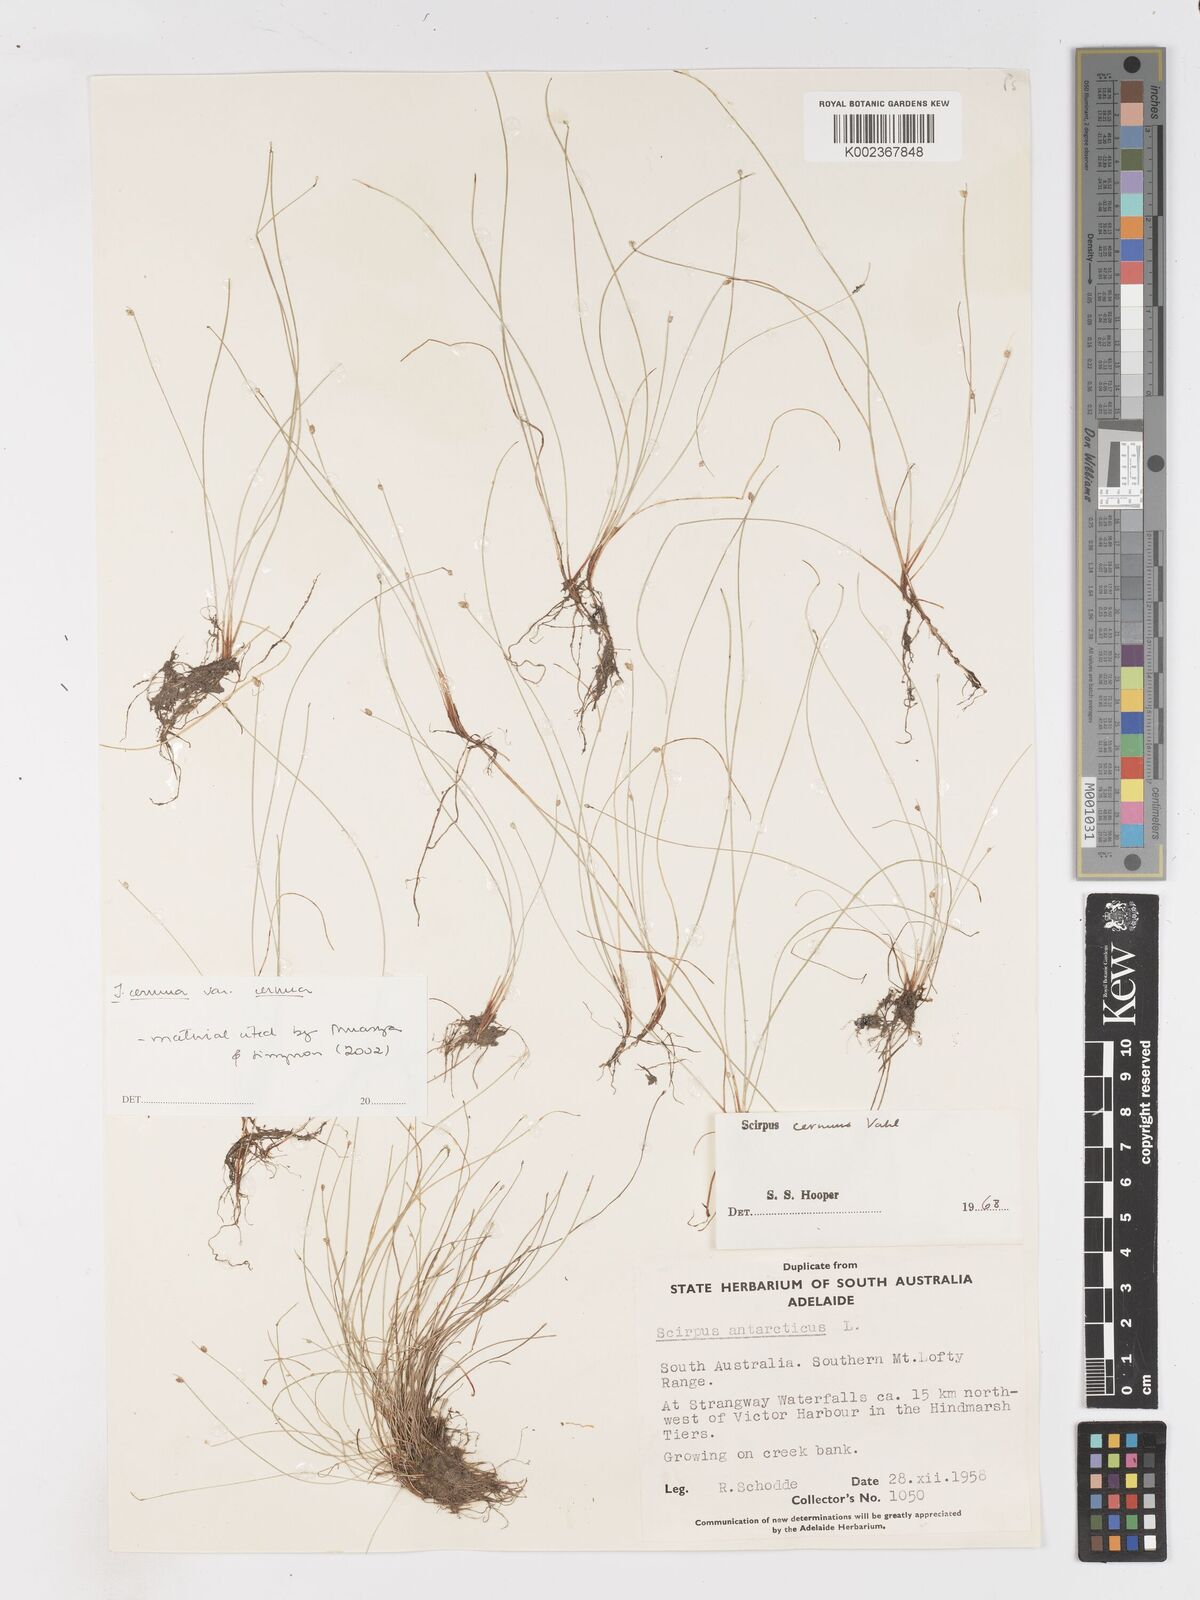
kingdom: Plantae
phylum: Tracheophyta
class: Liliopsida
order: Poales
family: Cyperaceae
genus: Isolepis
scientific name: Isolepis cernua
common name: Slender club-rush
